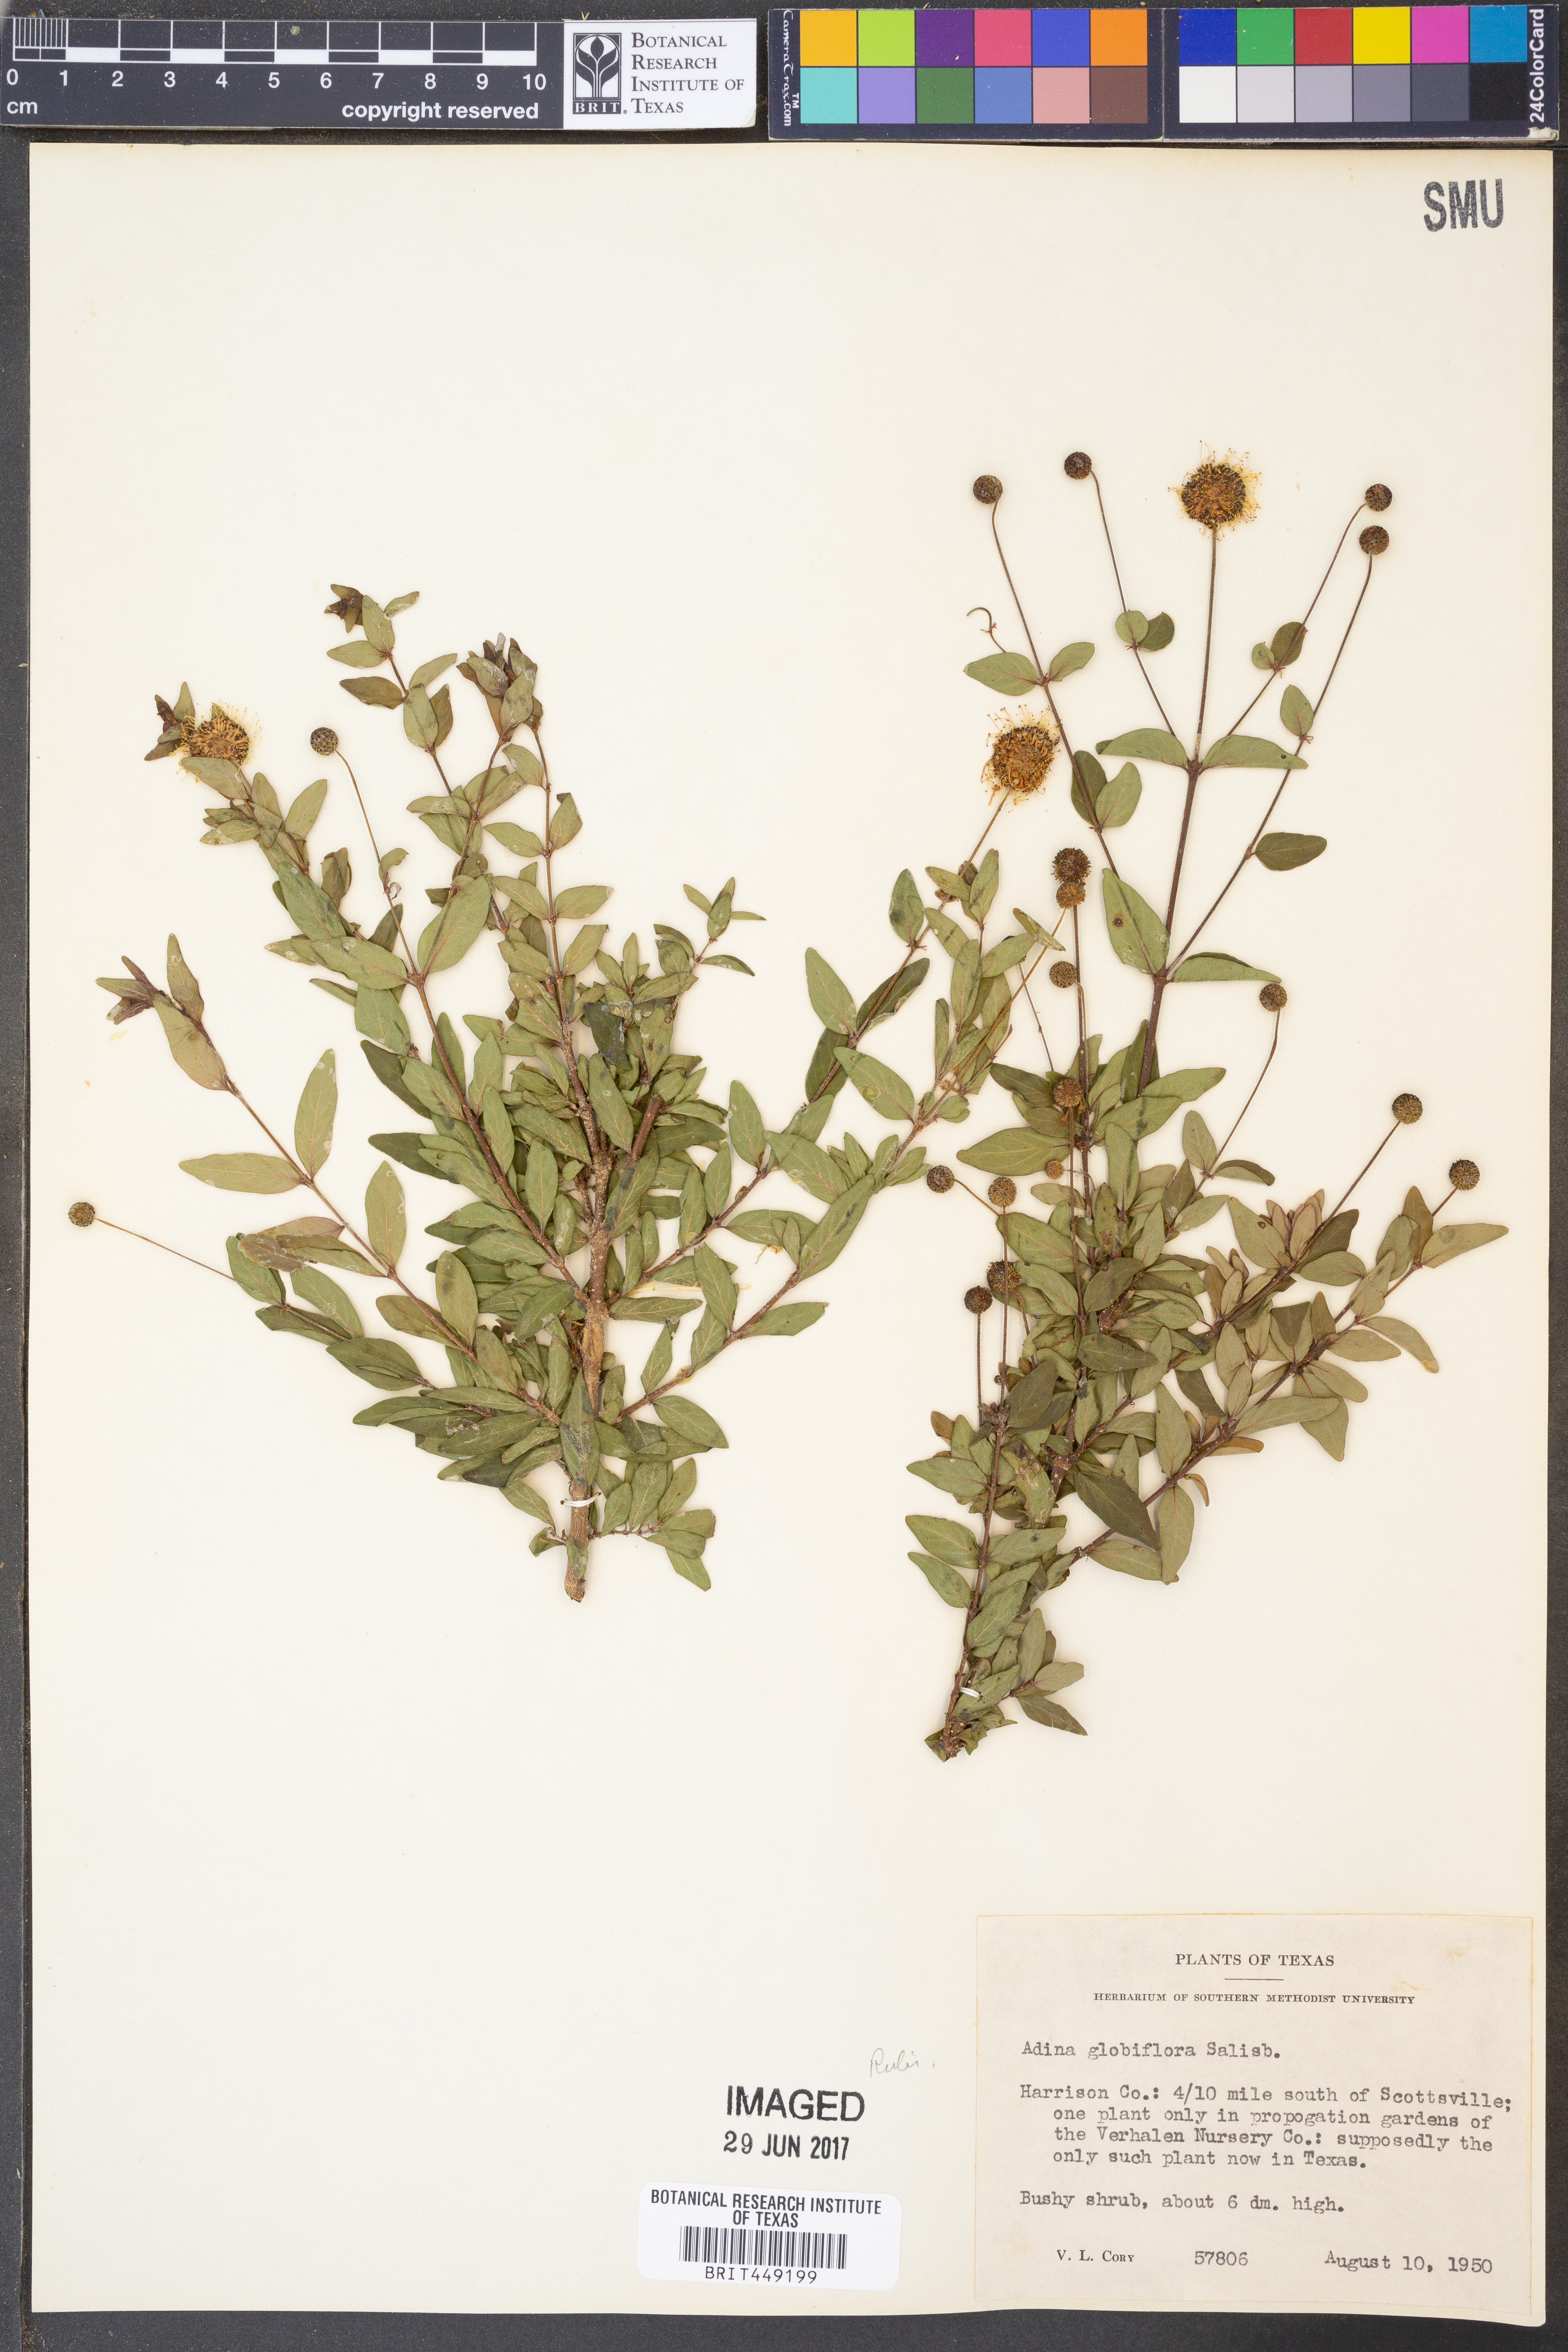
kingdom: Plantae
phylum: Tracheophyta
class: Magnoliopsida
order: Gentianales
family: Rubiaceae
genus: Adina
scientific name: Adina pilulifera
